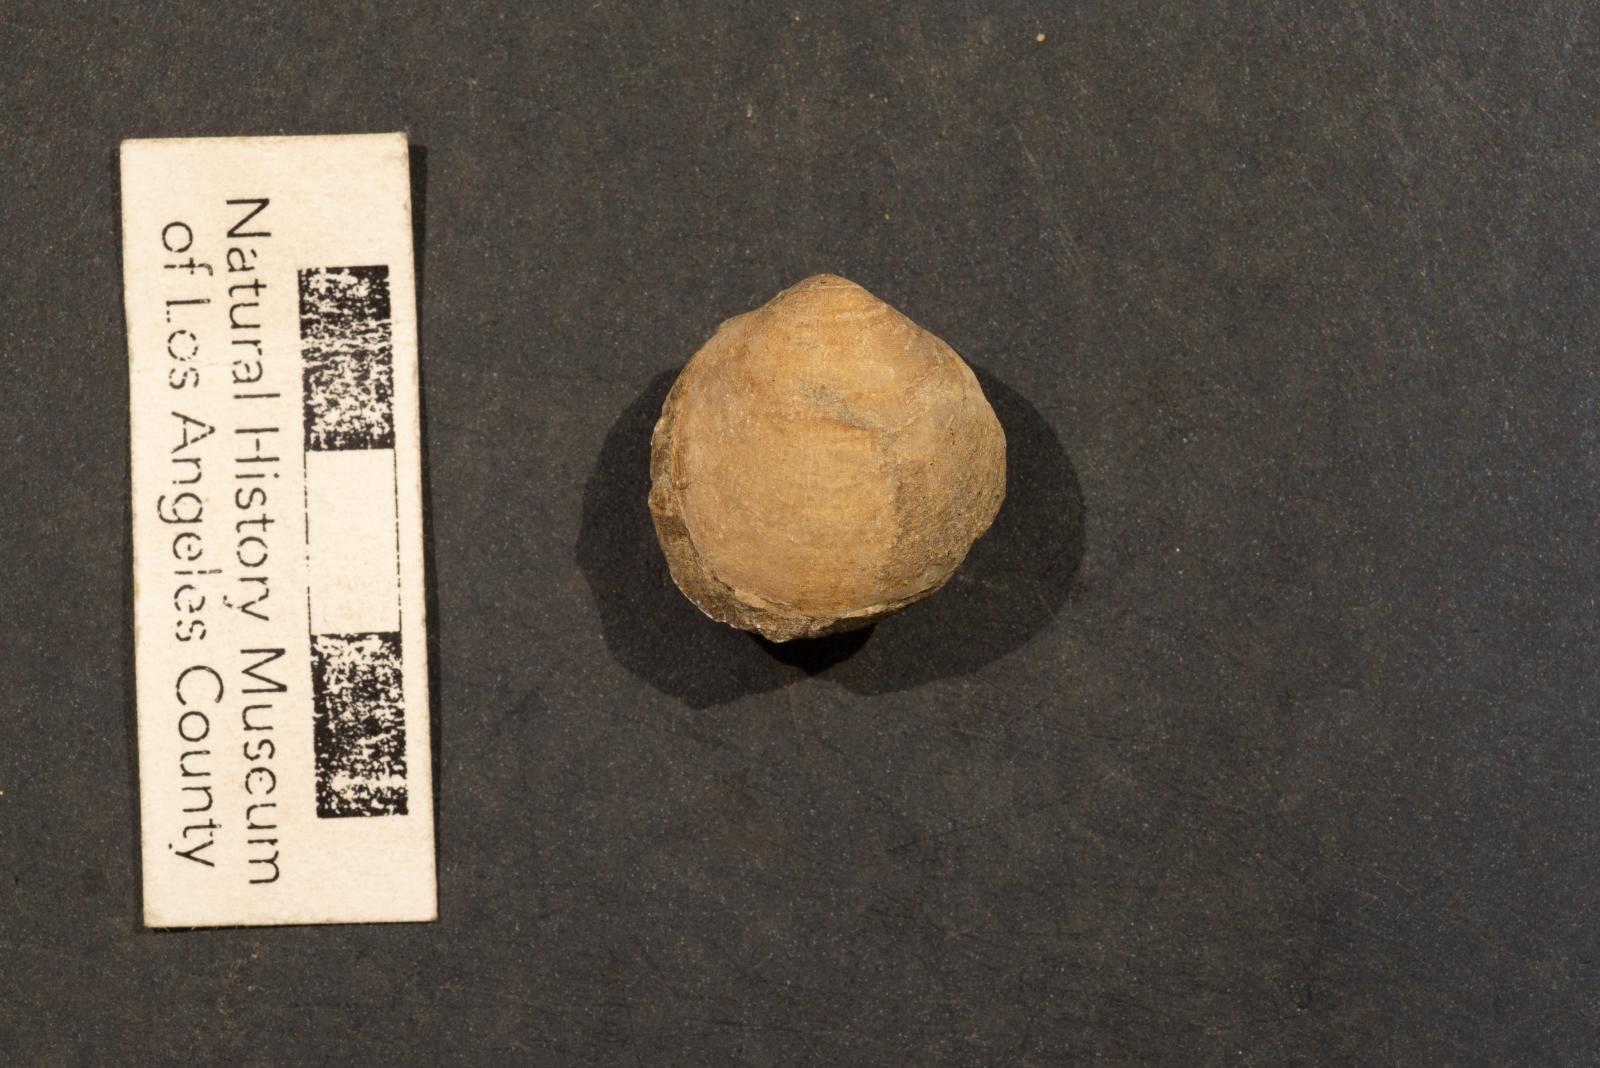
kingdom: Animalia
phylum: Mollusca
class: Bivalvia
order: Arcida
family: Glycymerididae
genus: Glycymeris
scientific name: Glycymeris Pectunculus pacificus
